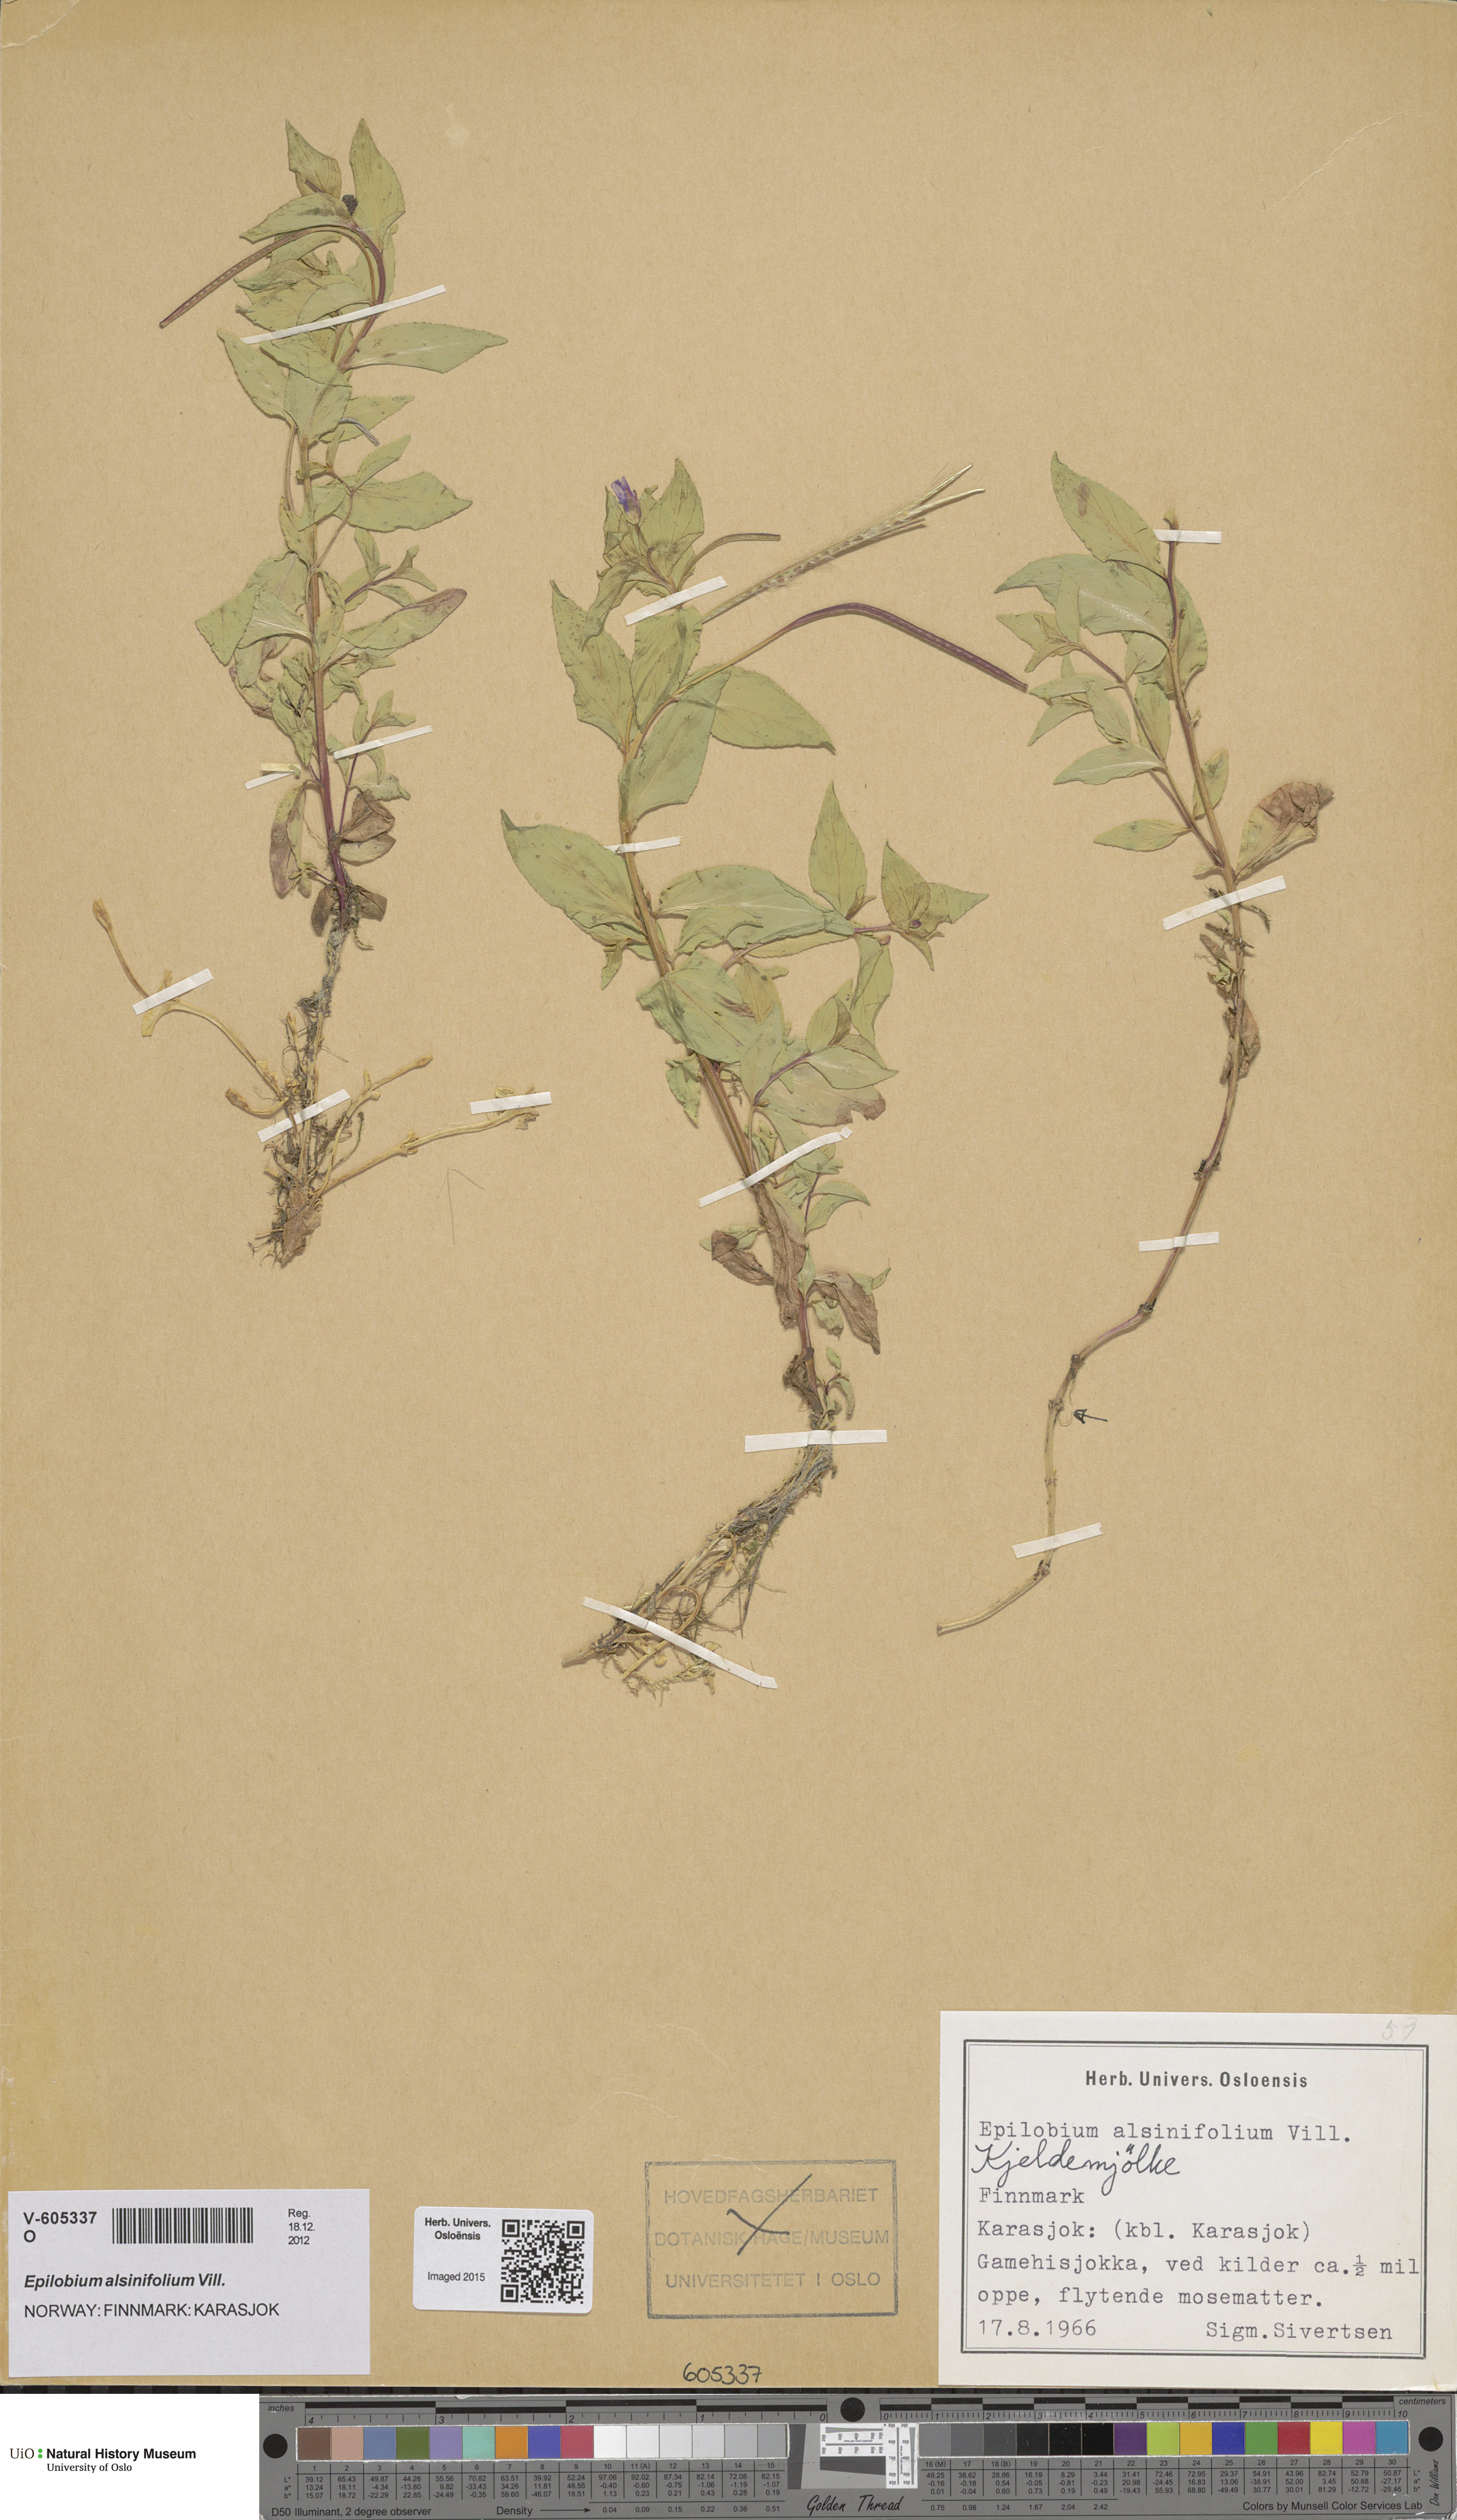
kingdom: Plantae
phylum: Tracheophyta
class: Magnoliopsida
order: Myrtales
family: Onagraceae
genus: Epilobium
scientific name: Epilobium alsinifolium
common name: Chickweed willowherb
